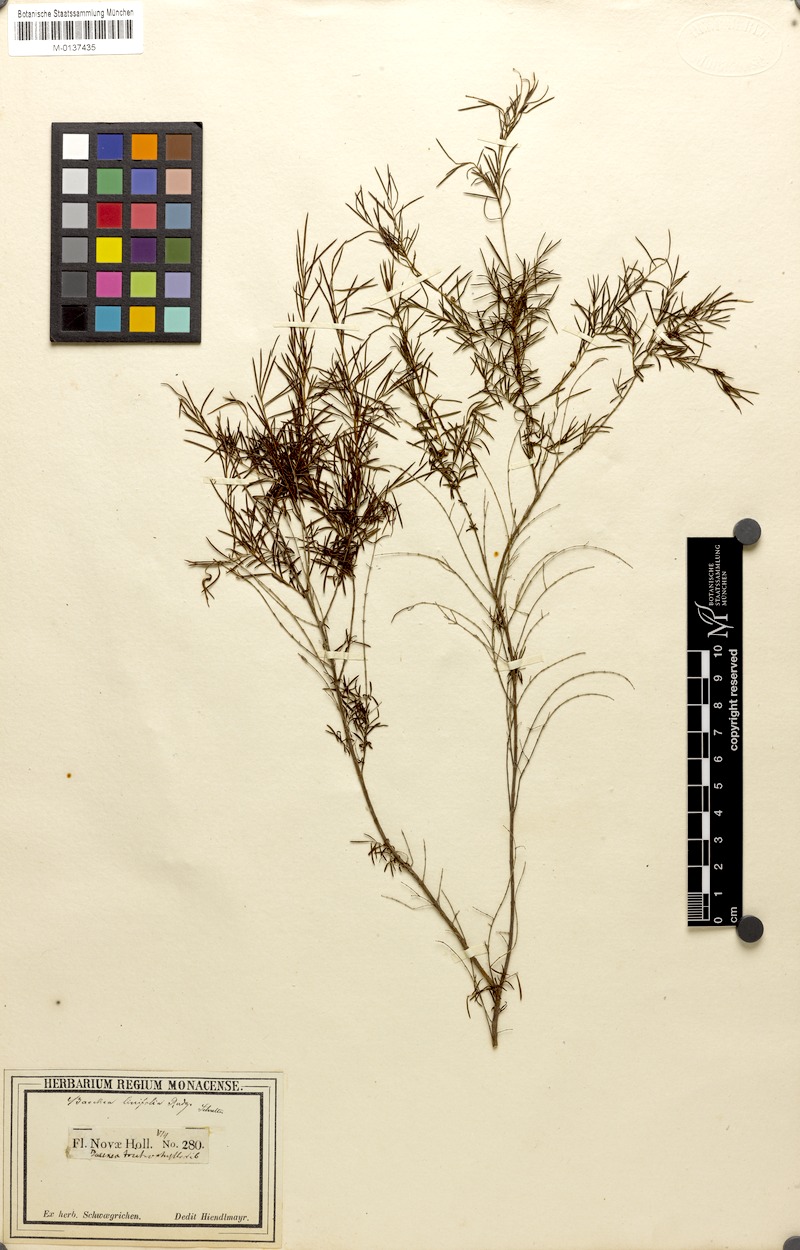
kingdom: Plantae
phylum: Tracheophyta
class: Magnoliopsida
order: Myrtales
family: Myrtaceae
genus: Baeckea
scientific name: Baeckea linifolia
